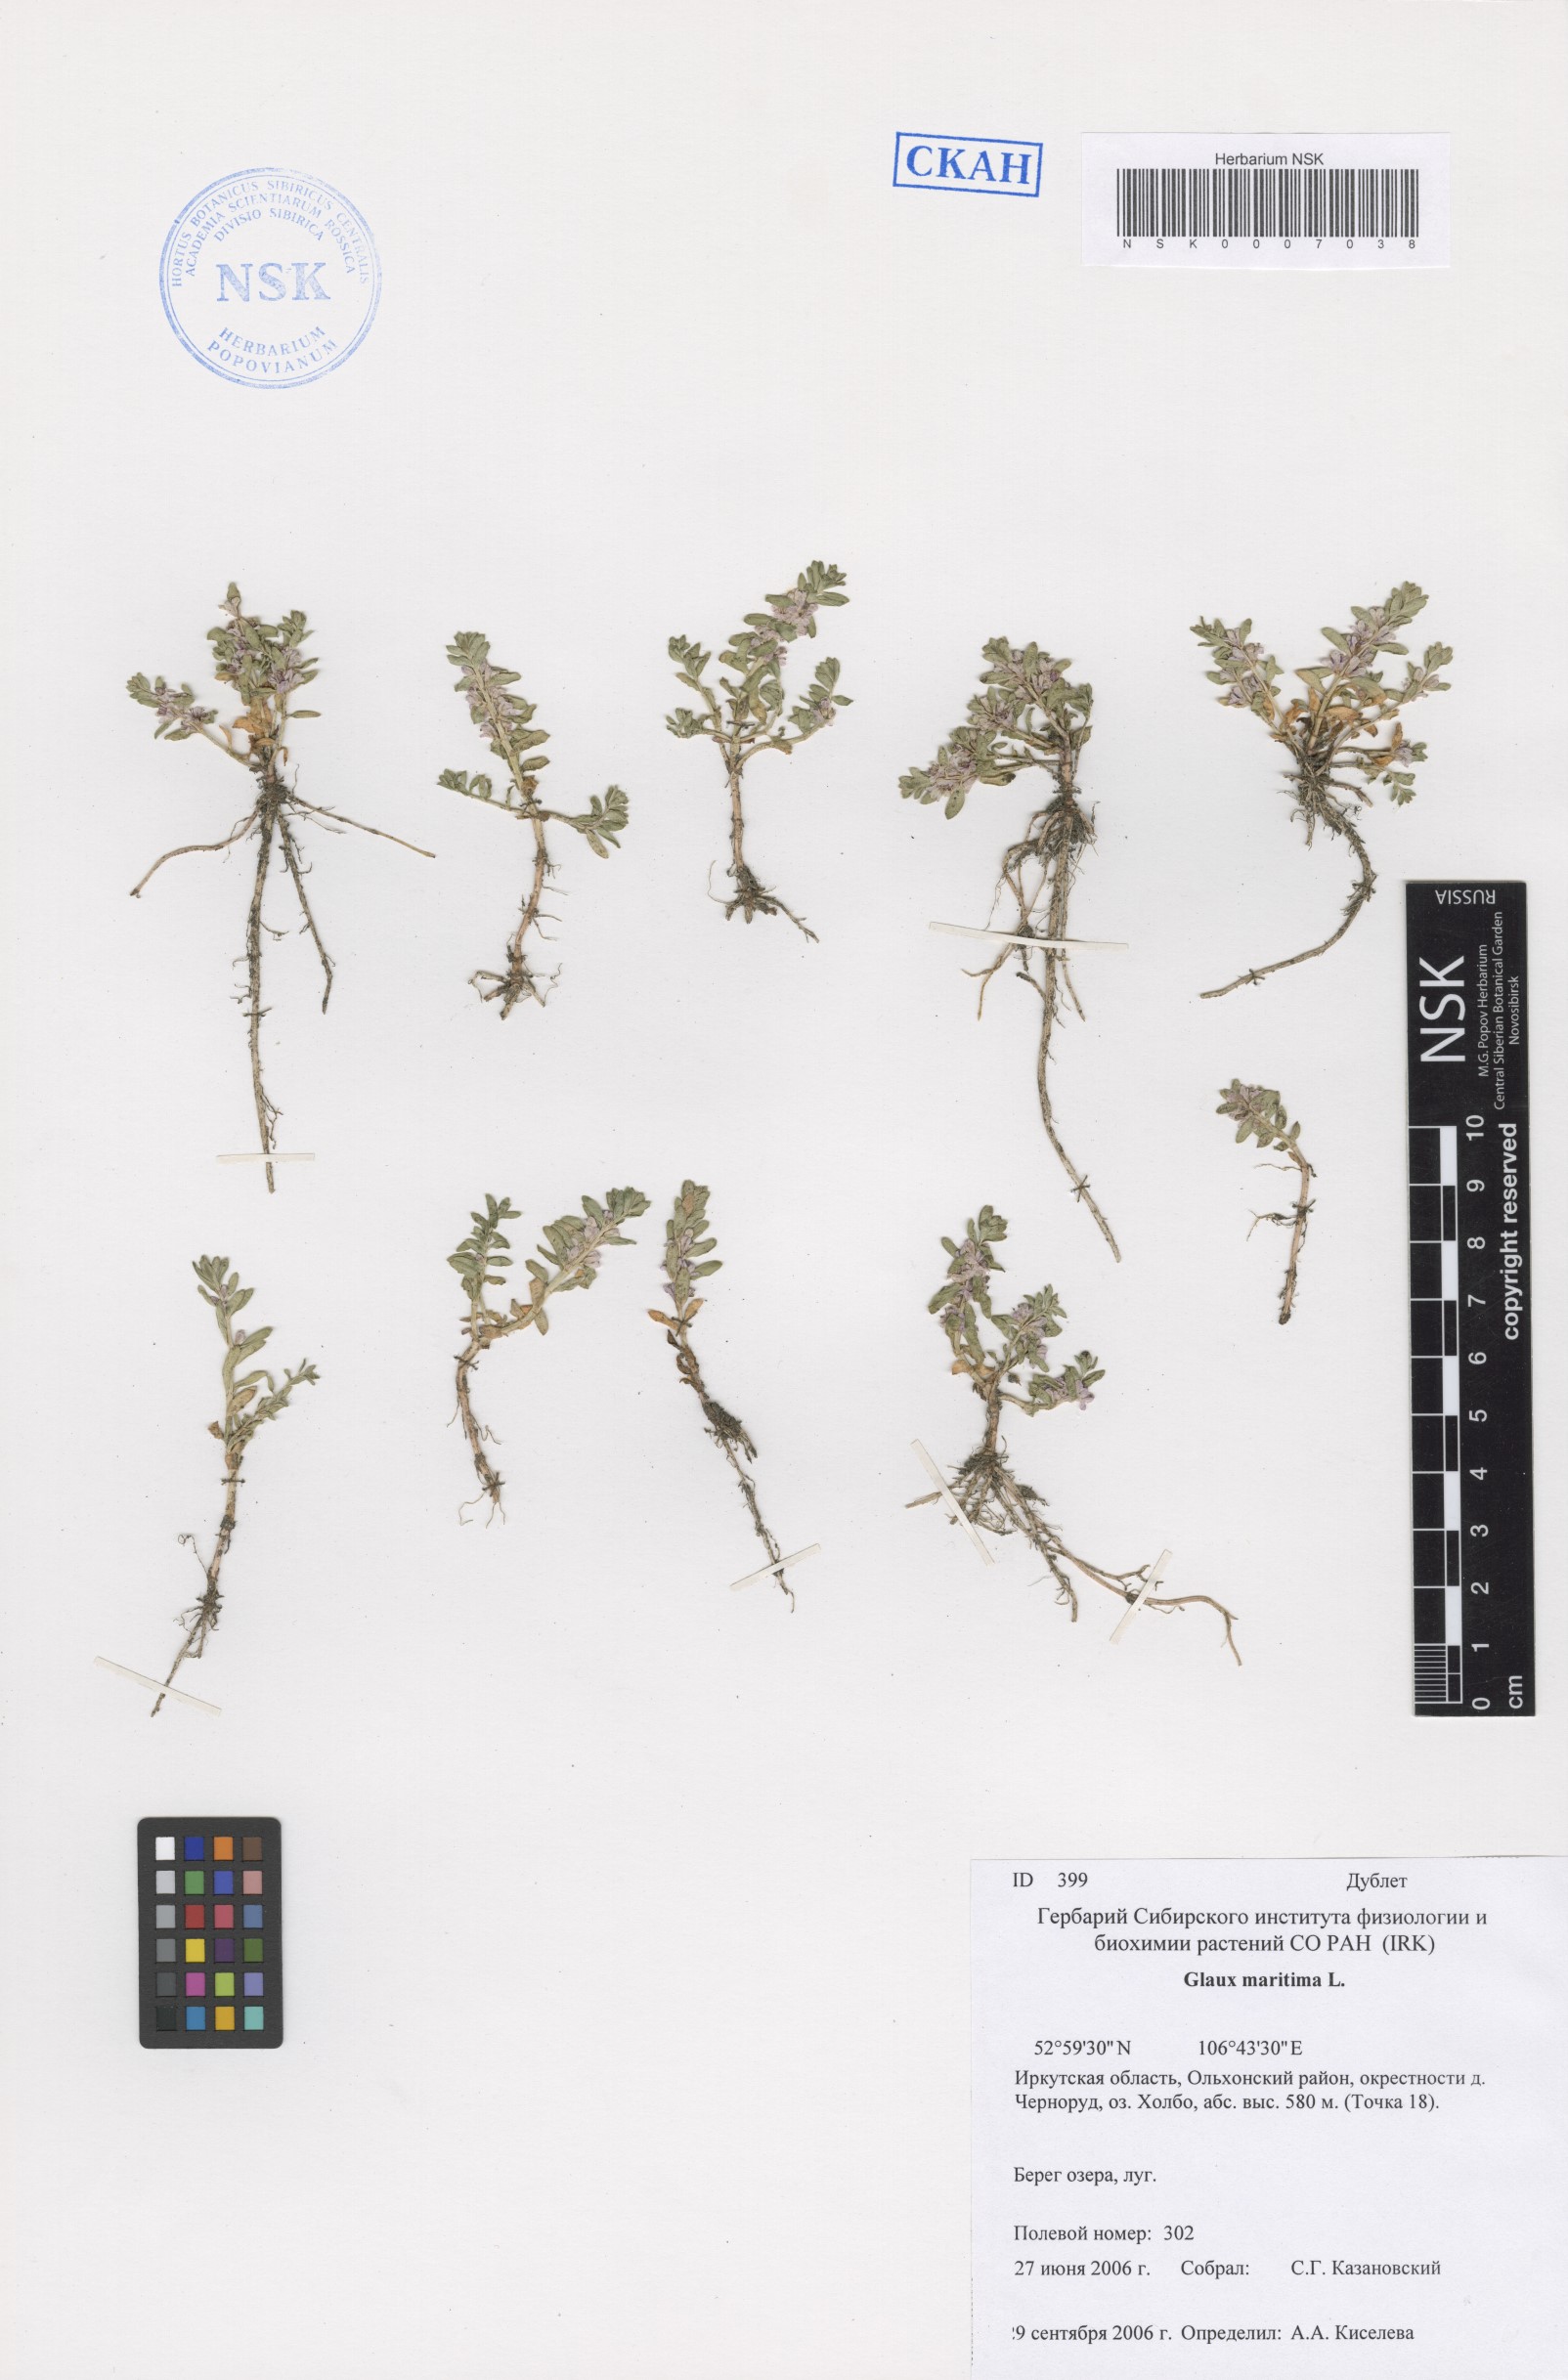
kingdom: Plantae
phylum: Tracheophyta
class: Magnoliopsida
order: Ericales
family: Primulaceae
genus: Lysimachia
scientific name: Lysimachia maritima
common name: Sea milkwort
